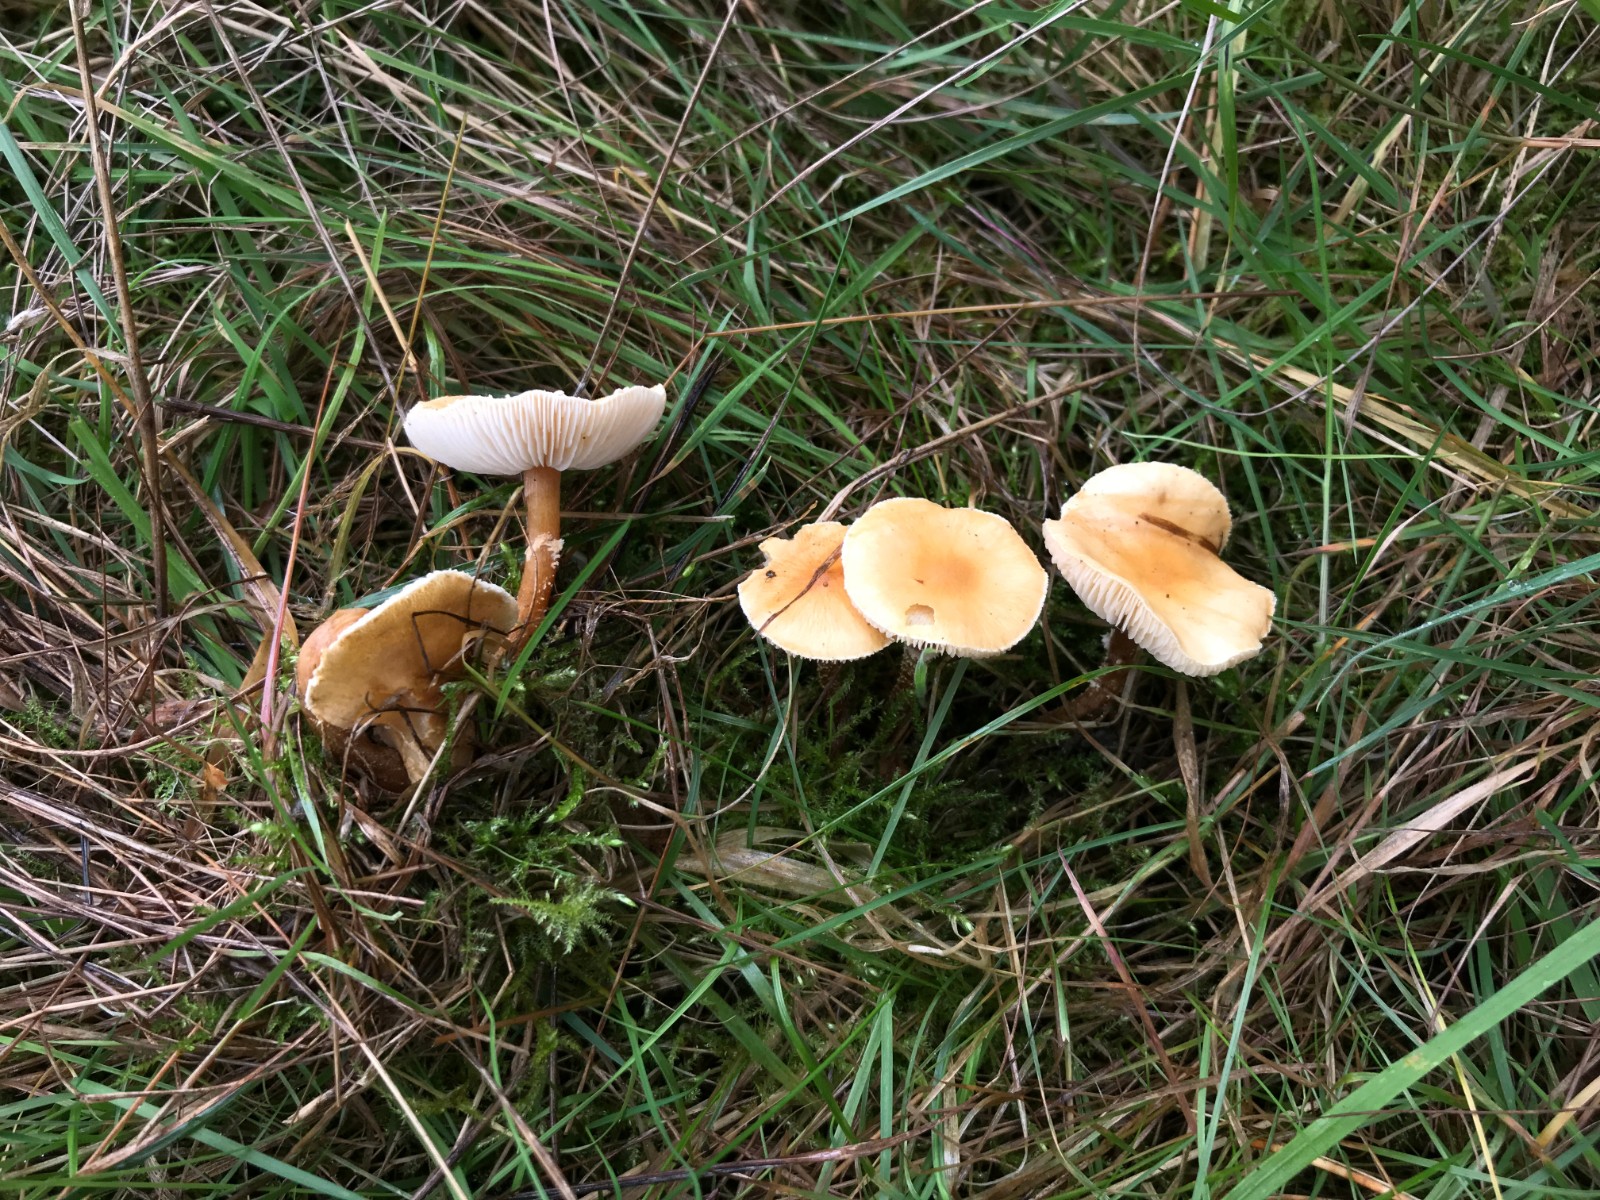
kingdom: Fungi
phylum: Basidiomycota
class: Agaricomycetes
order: Agaricales
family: Tricholomataceae
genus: Cystoderma
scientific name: Cystoderma amianthinum
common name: okkergul grynhat
